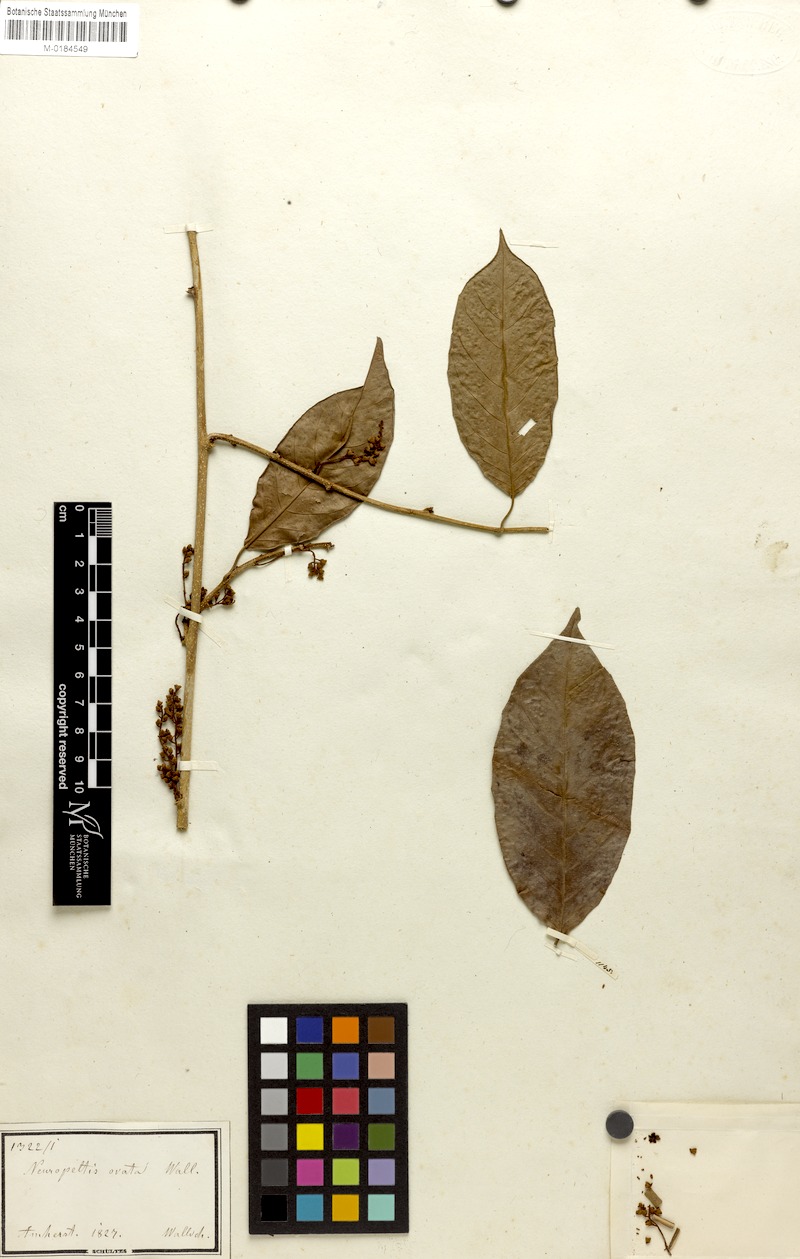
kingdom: Plantae
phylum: Tracheophyta
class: Magnoliopsida
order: Solanales
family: Convolvulaceae
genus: Neuropeltis
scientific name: Neuropeltis racemosa
